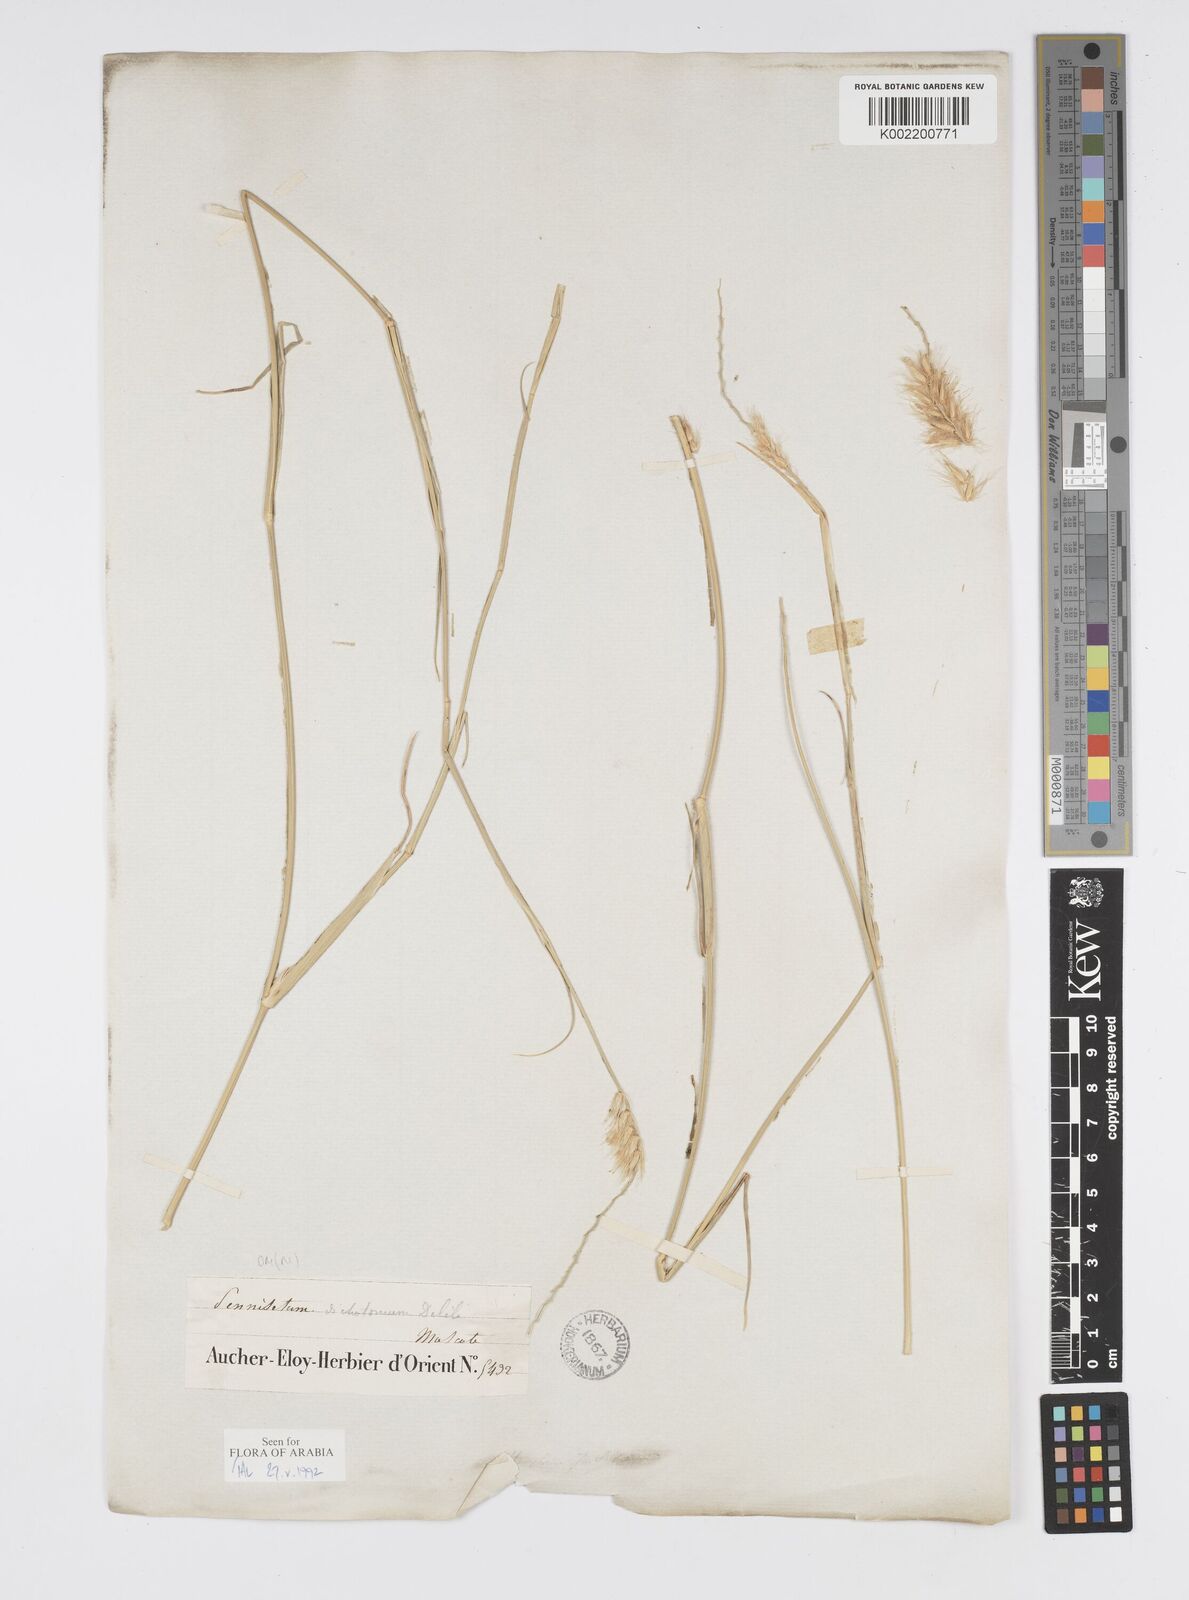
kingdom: Plantae
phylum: Tracheophyta
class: Liliopsida
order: Poales
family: Poaceae
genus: Cenchrus
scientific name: Cenchrus divisus
